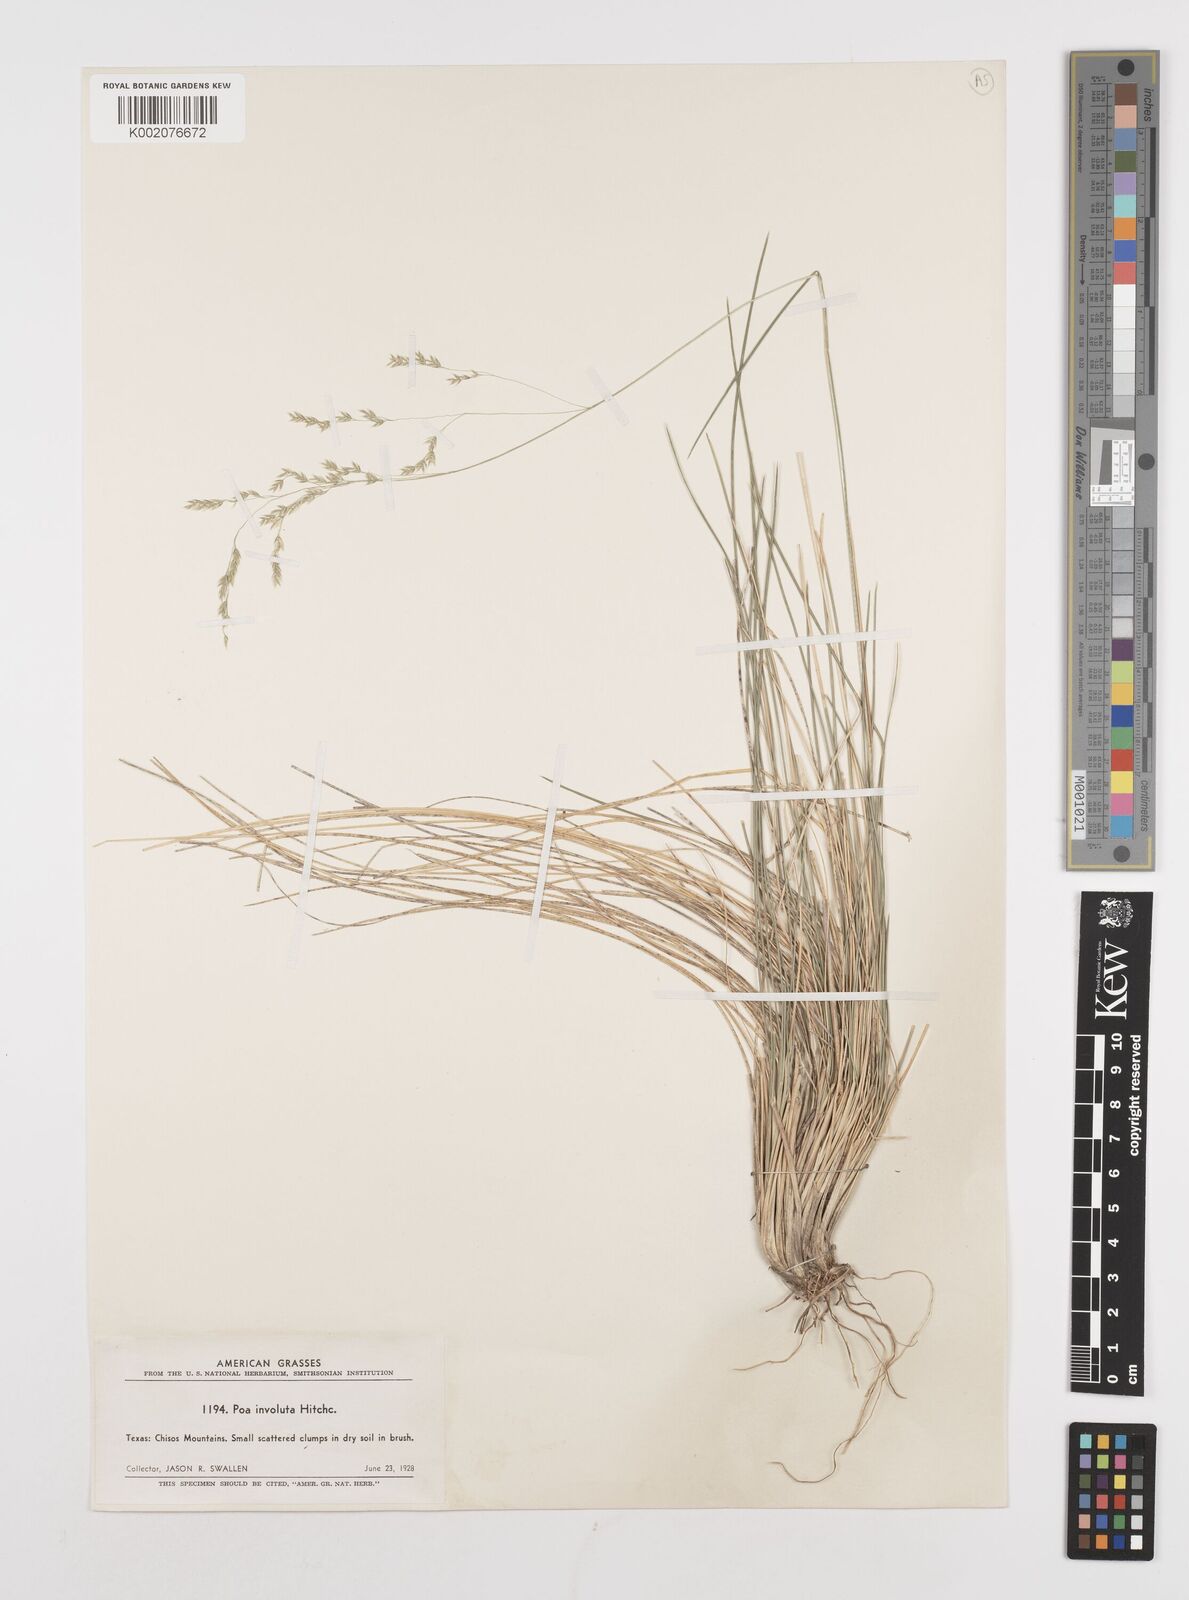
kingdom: Plantae
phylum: Tracheophyta
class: Liliopsida
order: Poales
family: Poaceae
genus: Poa
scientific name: Poa
